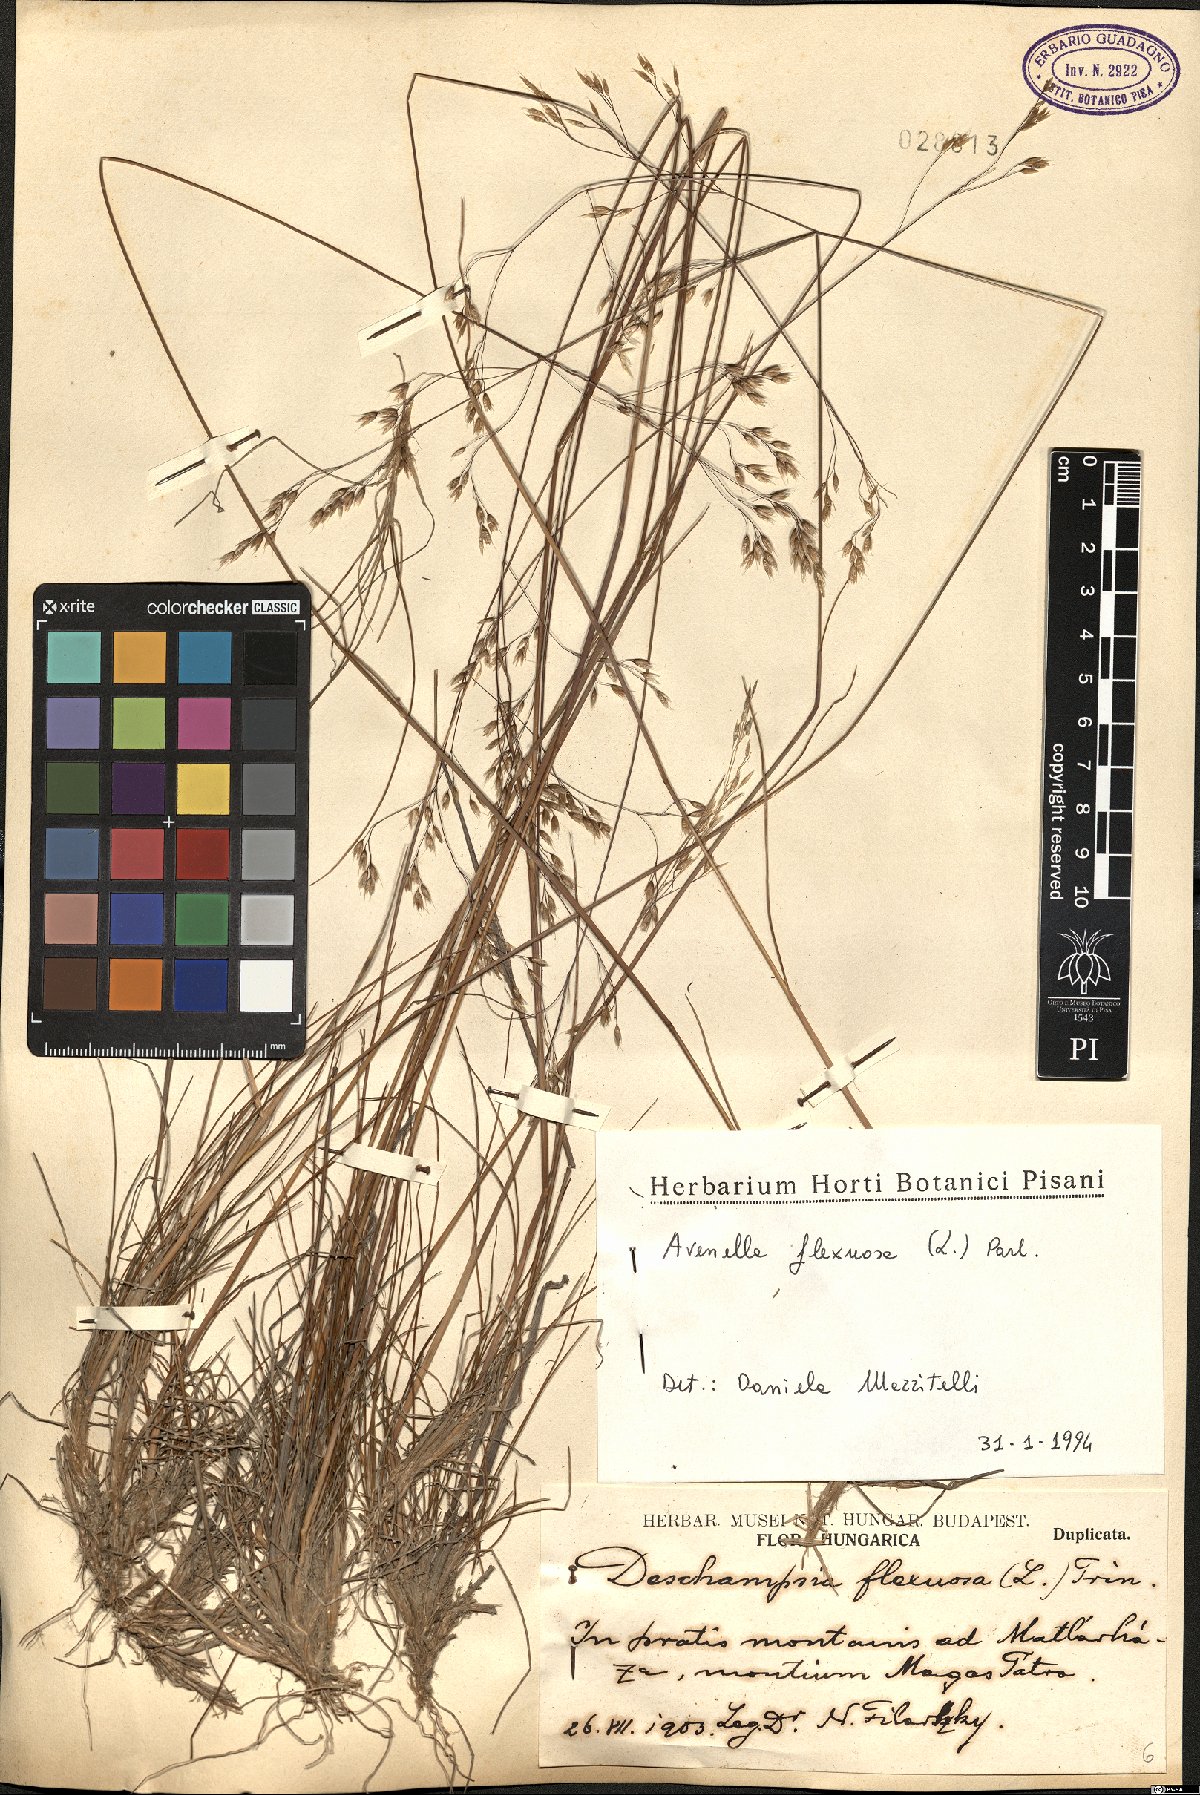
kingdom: Plantae
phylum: Tracheophyta
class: Liliopsida
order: Poales
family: Poaceae
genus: Avenella
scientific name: Avenella flexuosa
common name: Wavy hairgrass
